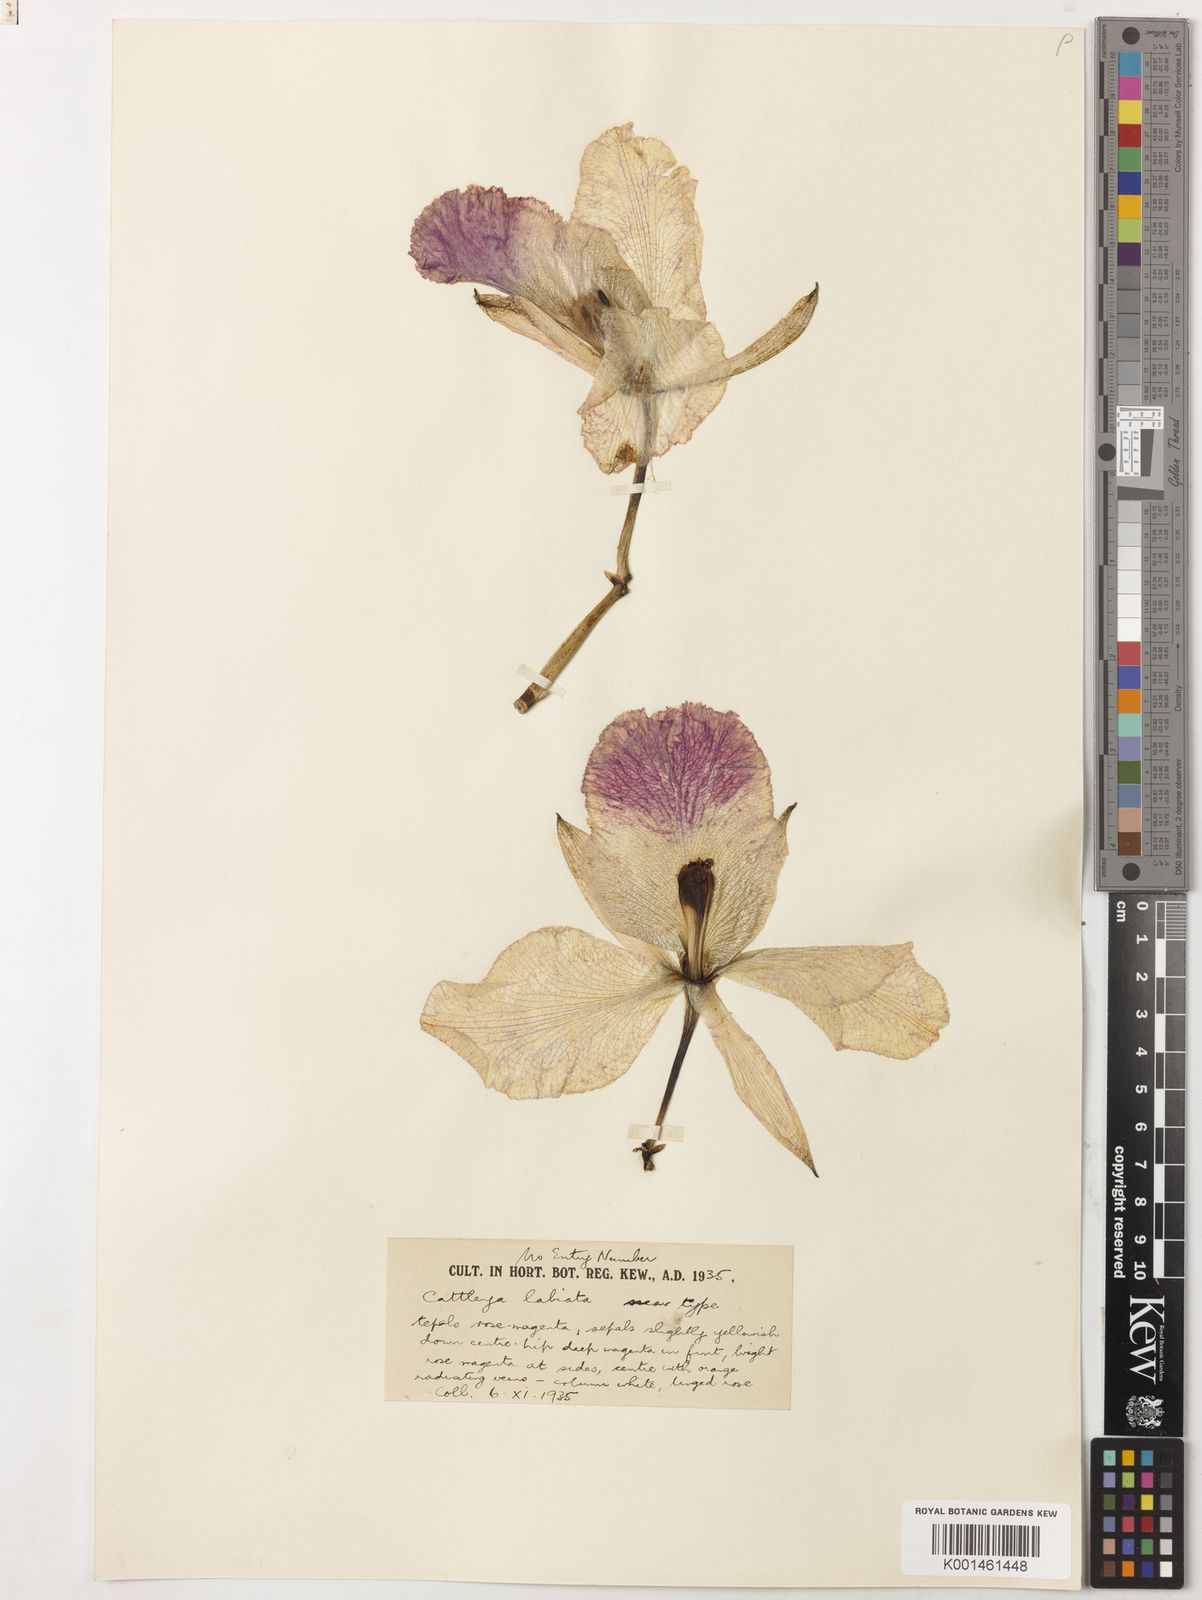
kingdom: Plantae
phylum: Tracheophyta
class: Liliopsida
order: Asparagales
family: Orchidaceae
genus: Cattleya
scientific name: Cattleya warscewiczii
